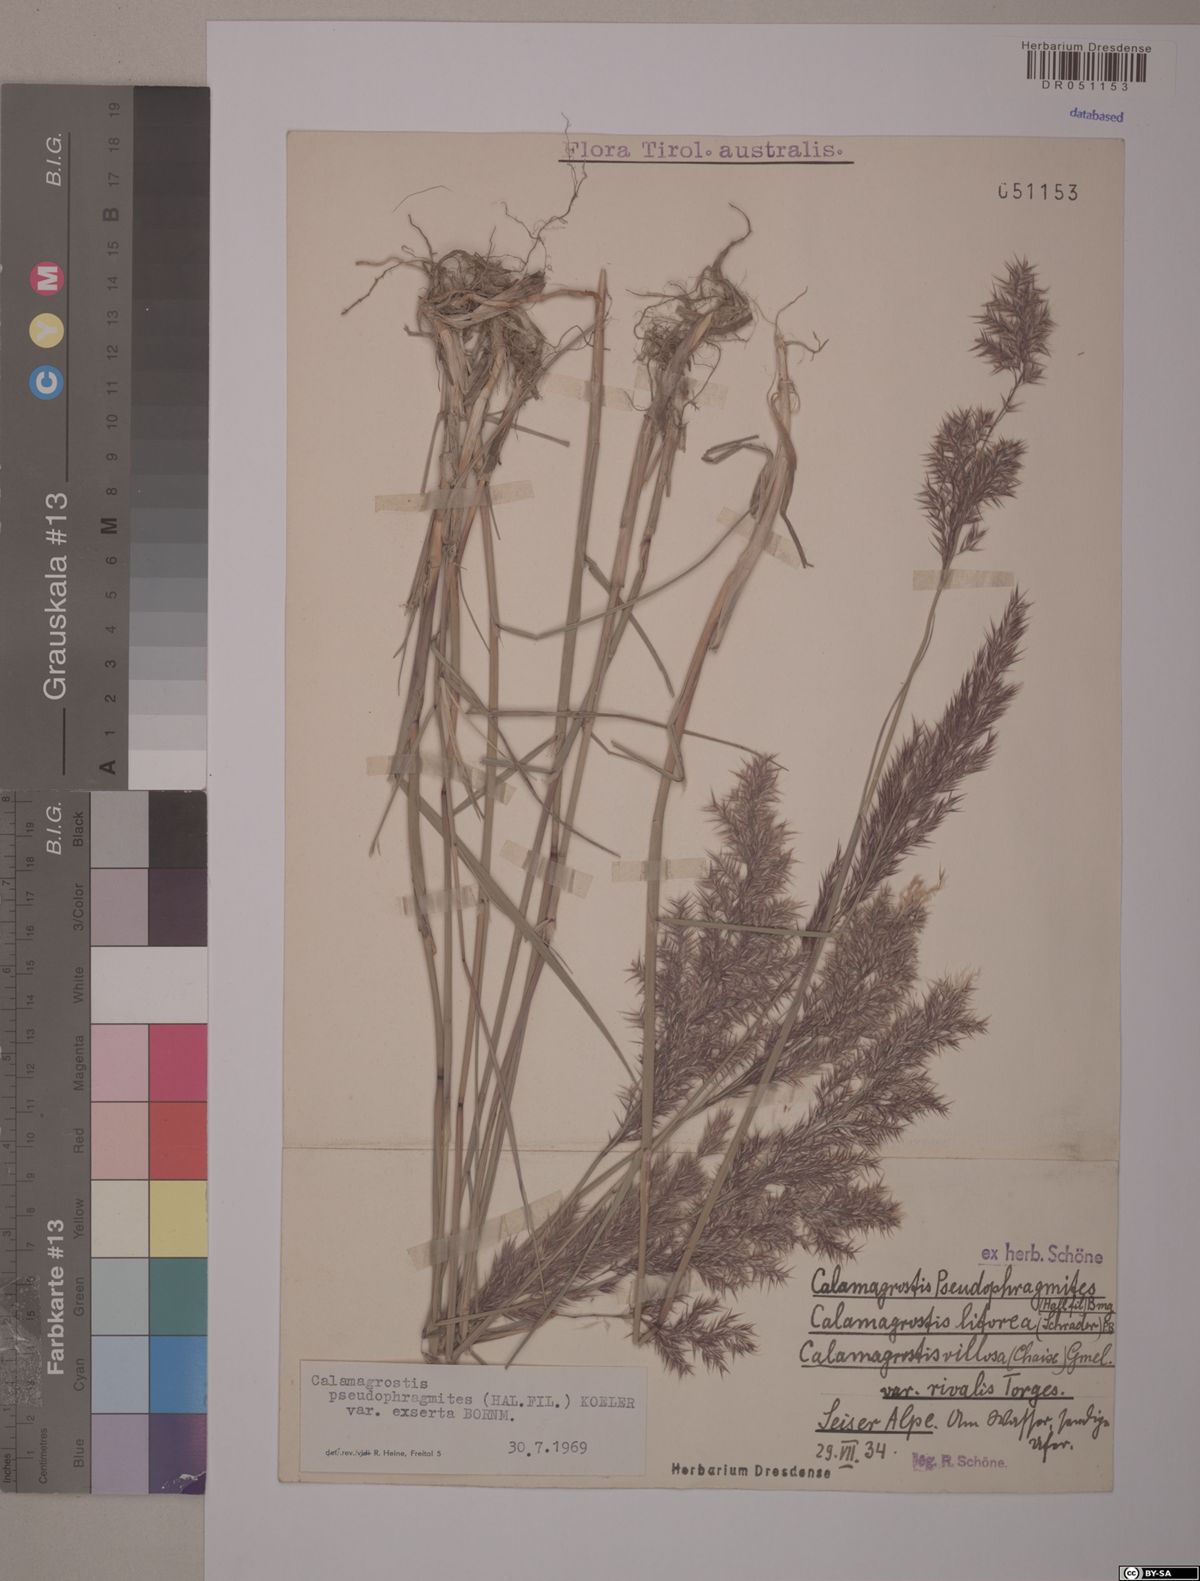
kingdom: Plantae
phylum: Tracheophyta
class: Liliopsida
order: Poales
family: Poaceae
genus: Calamagrostis
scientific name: Calamagrostis pseudophragmites
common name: Coastal small-reed
